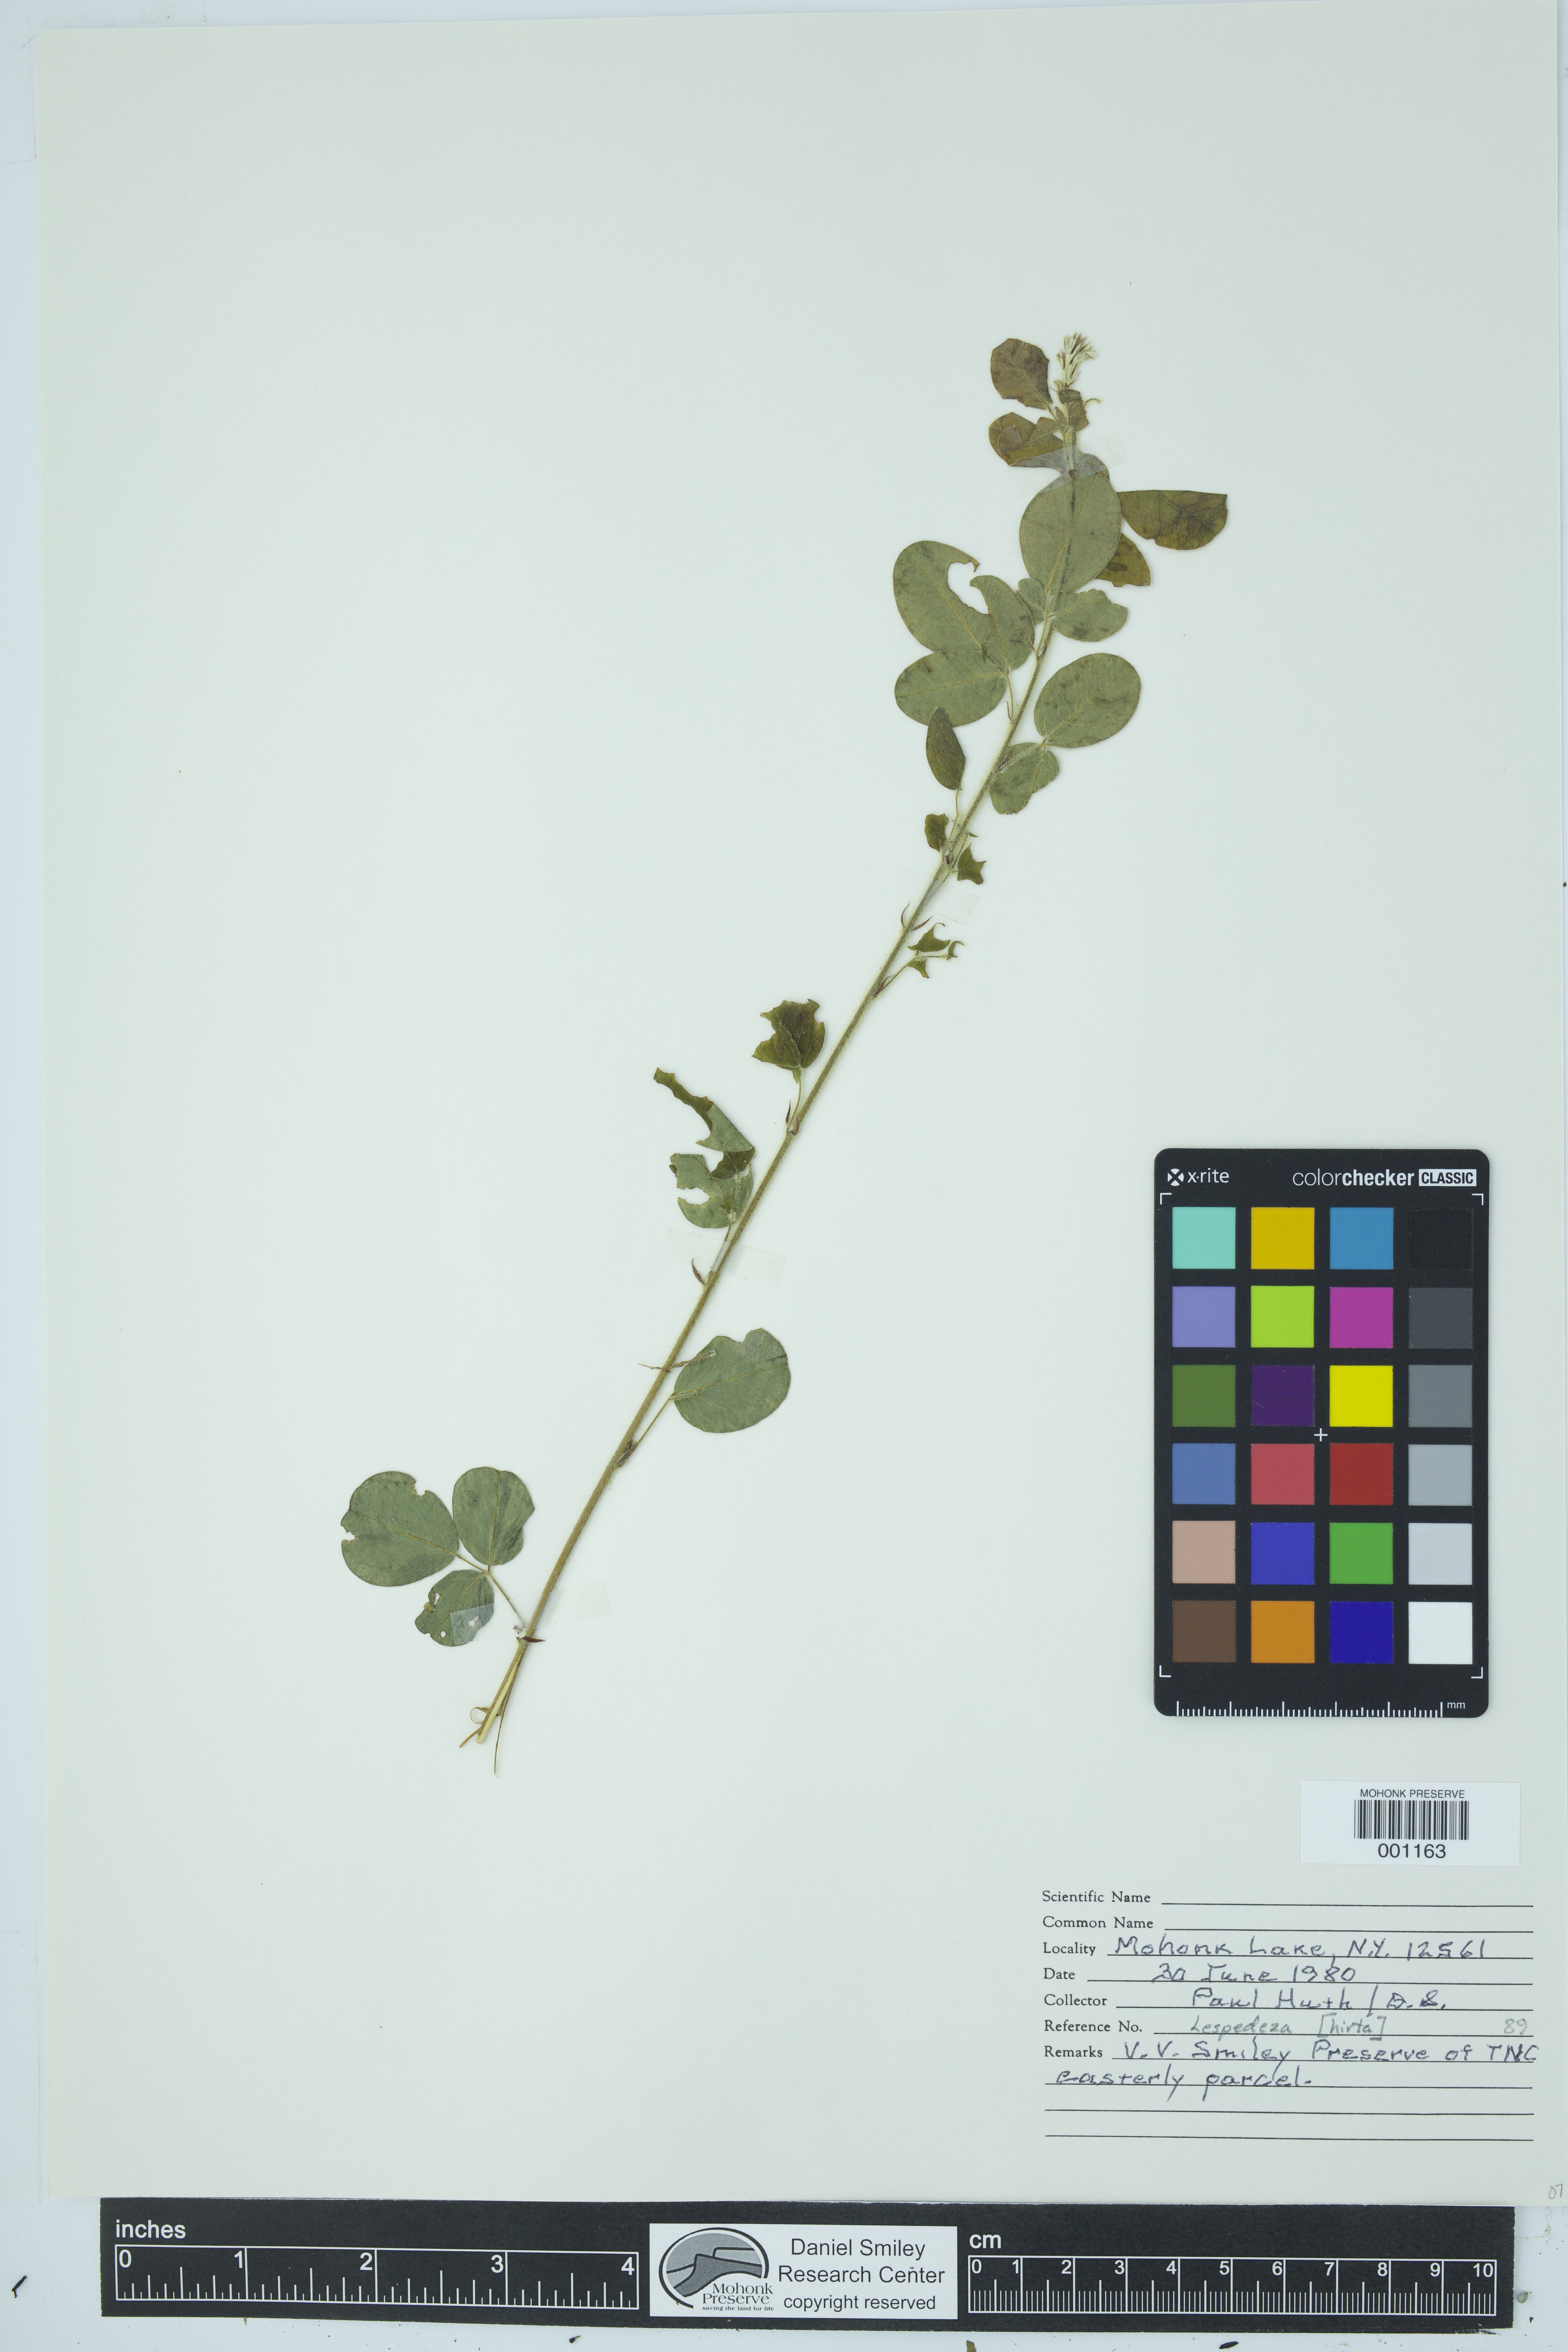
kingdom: Plantae
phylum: Tracheophyta
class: Magnoliopsida
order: Fabales
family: Fabaceae
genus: Lespedeza
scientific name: Lespedeza hirta
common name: Hairy lespedeza
